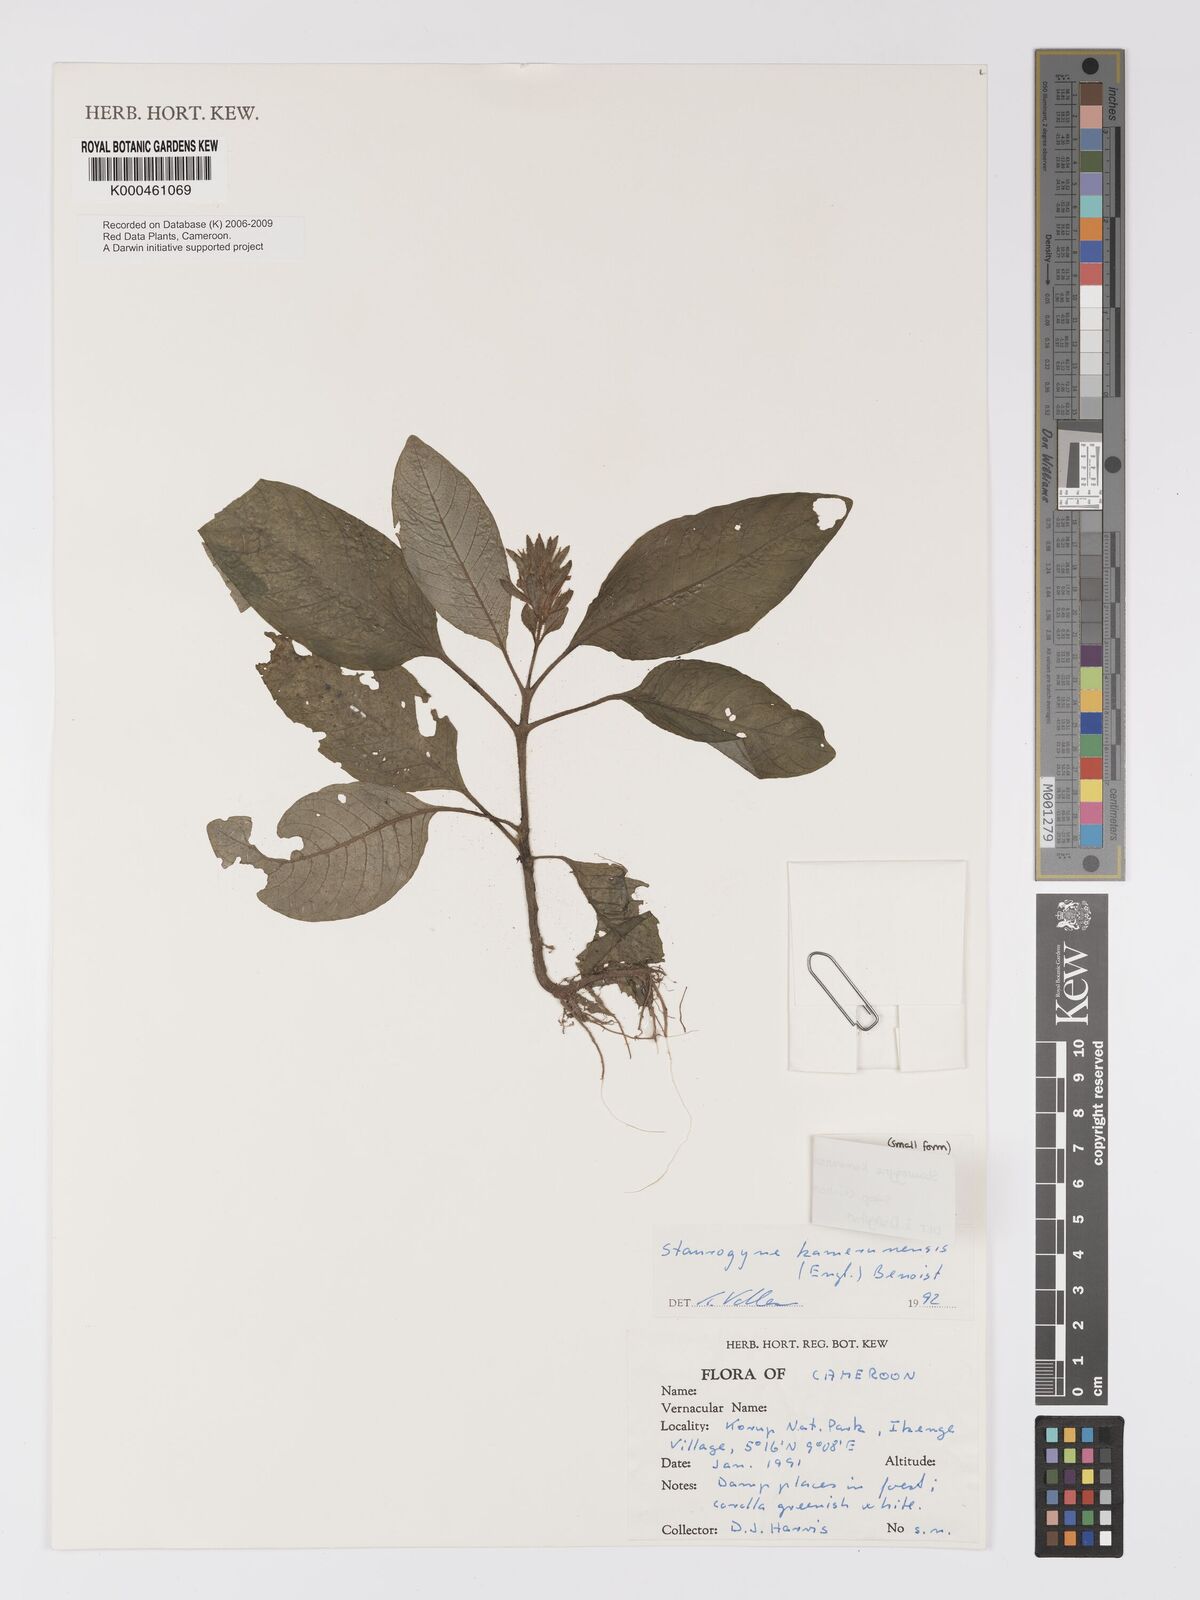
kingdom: Plantae
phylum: Tracheophyta
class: Magnoliopsida
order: Lamiales
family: Acanthaceae
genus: Staurogyne
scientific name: Staurogyne kamerunensis
